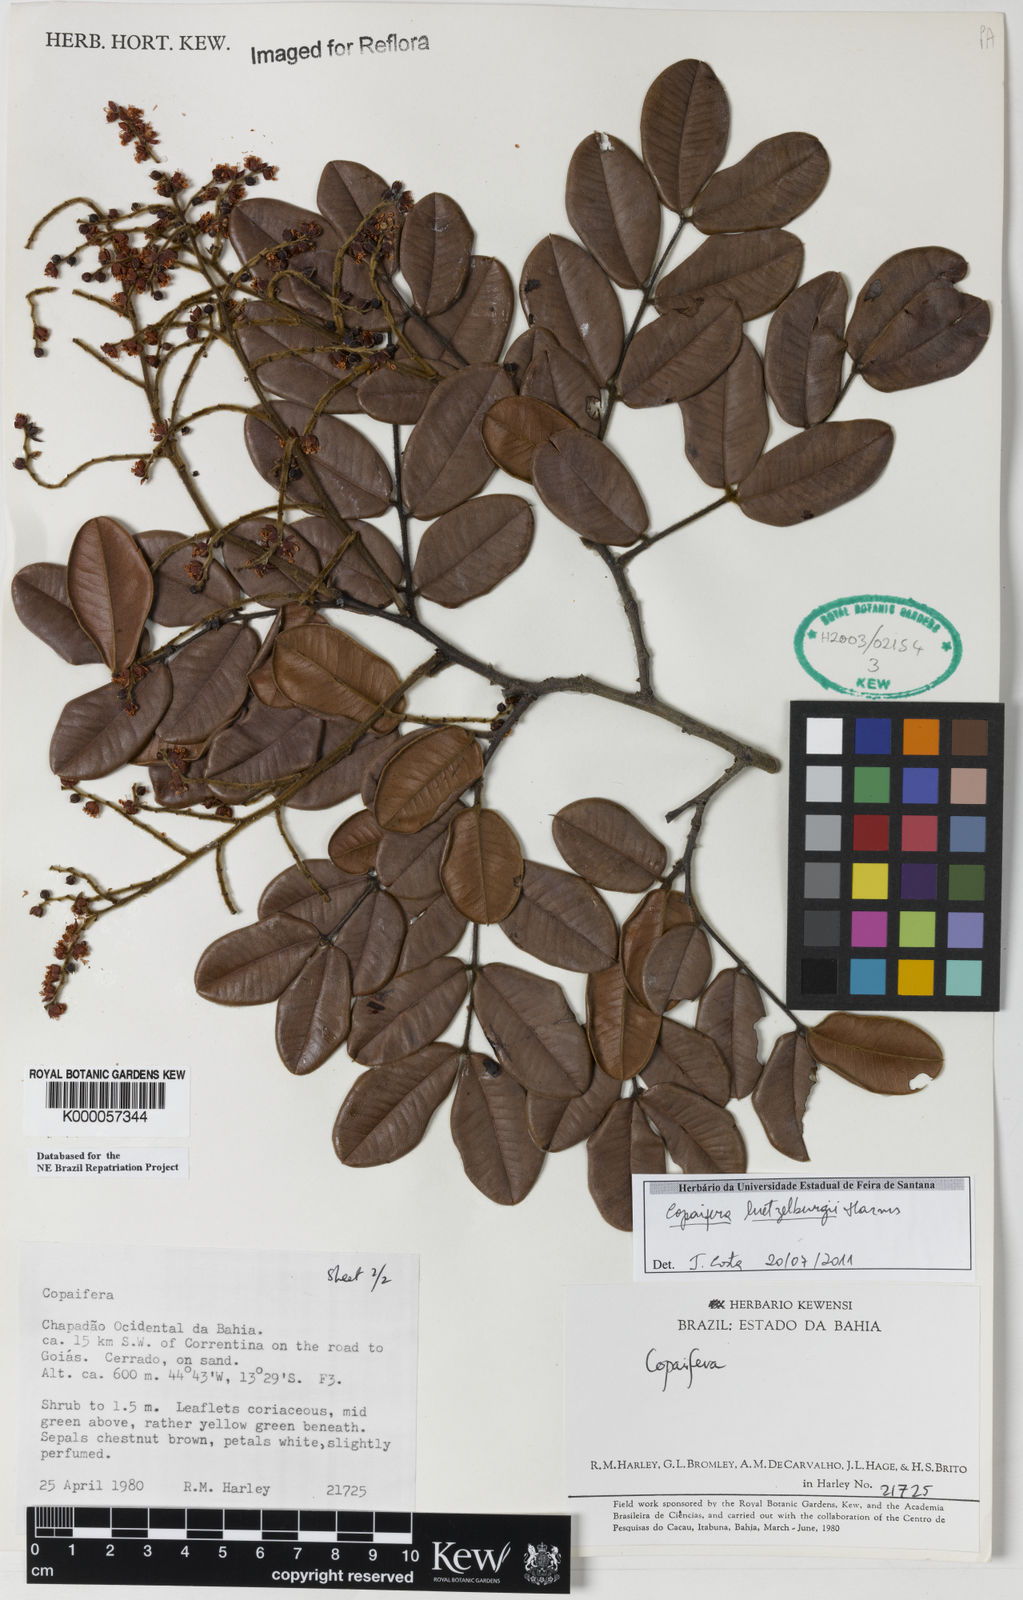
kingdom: Plantae
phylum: Tracheophyta
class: Magnoliopsida
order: Fabales
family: Fabaceae
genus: Copaifera
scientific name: Copaifera luetzelburgii
